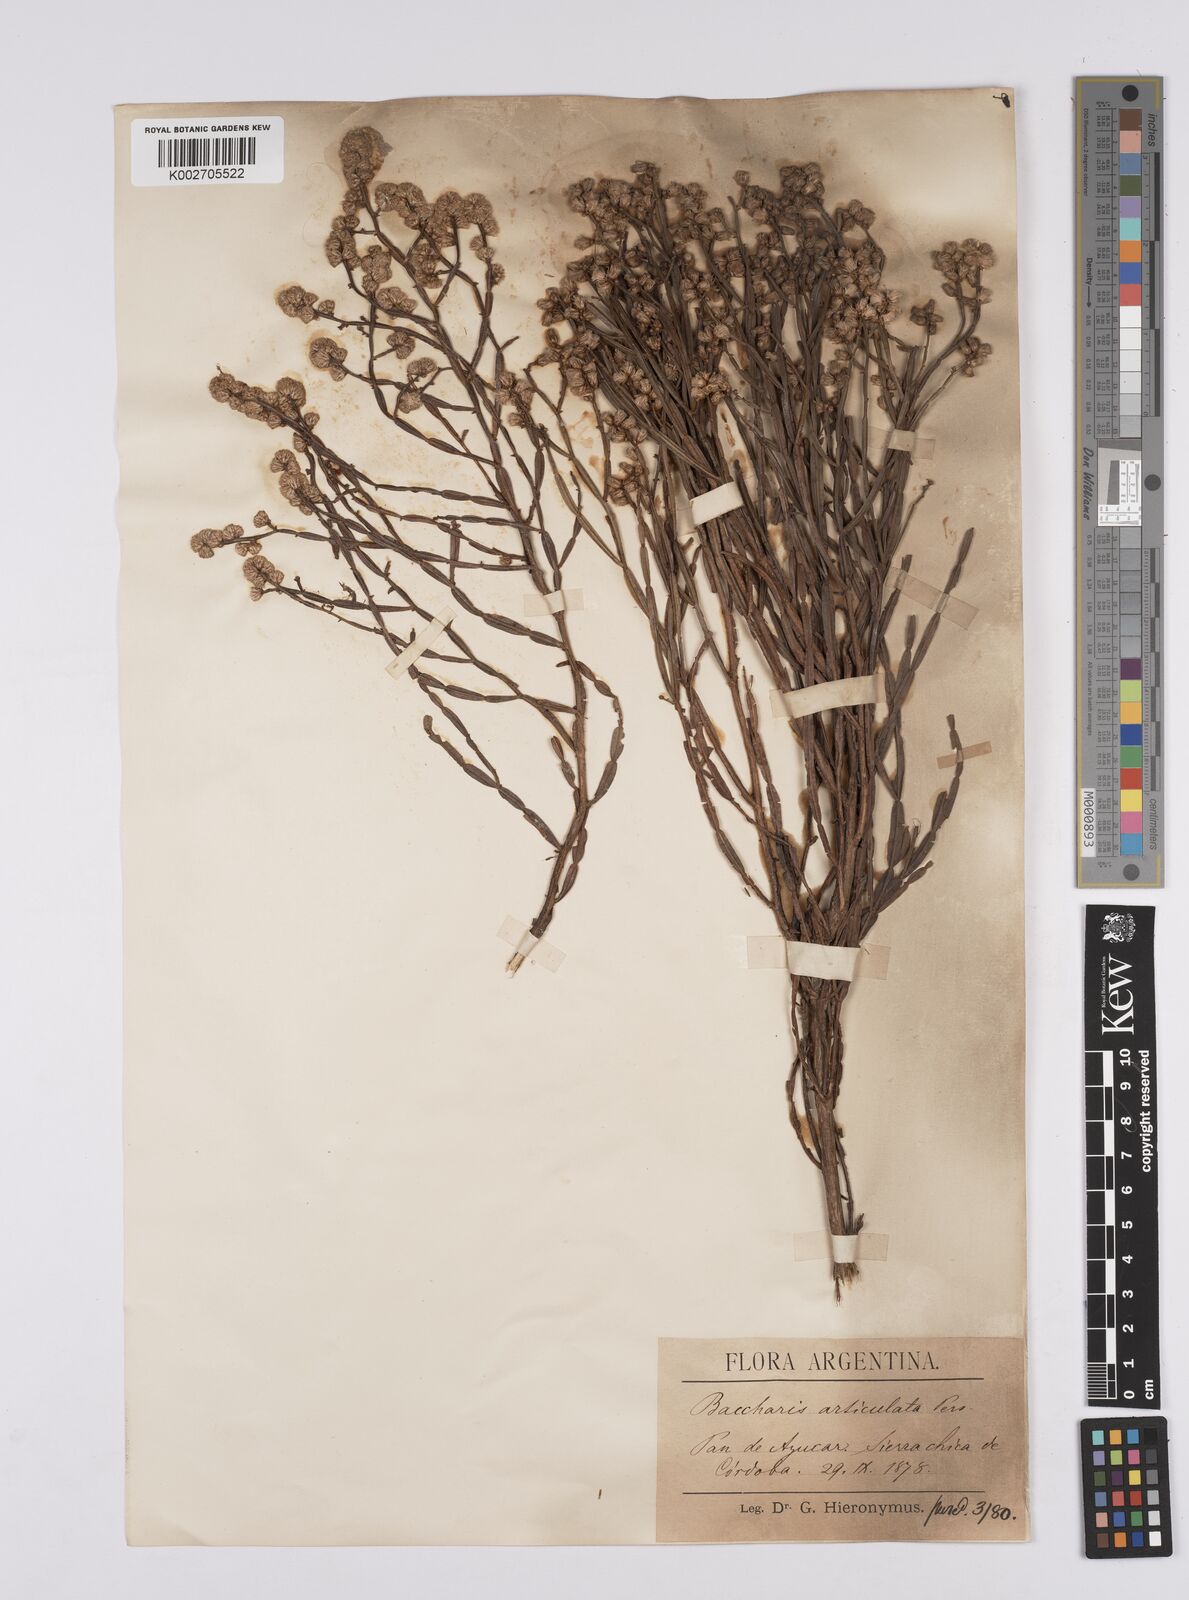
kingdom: Plantae
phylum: Tracheophyta
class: Magnoliopsida
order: Asterales
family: Asteraceae
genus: Baccharis
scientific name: Baccharis articulata
